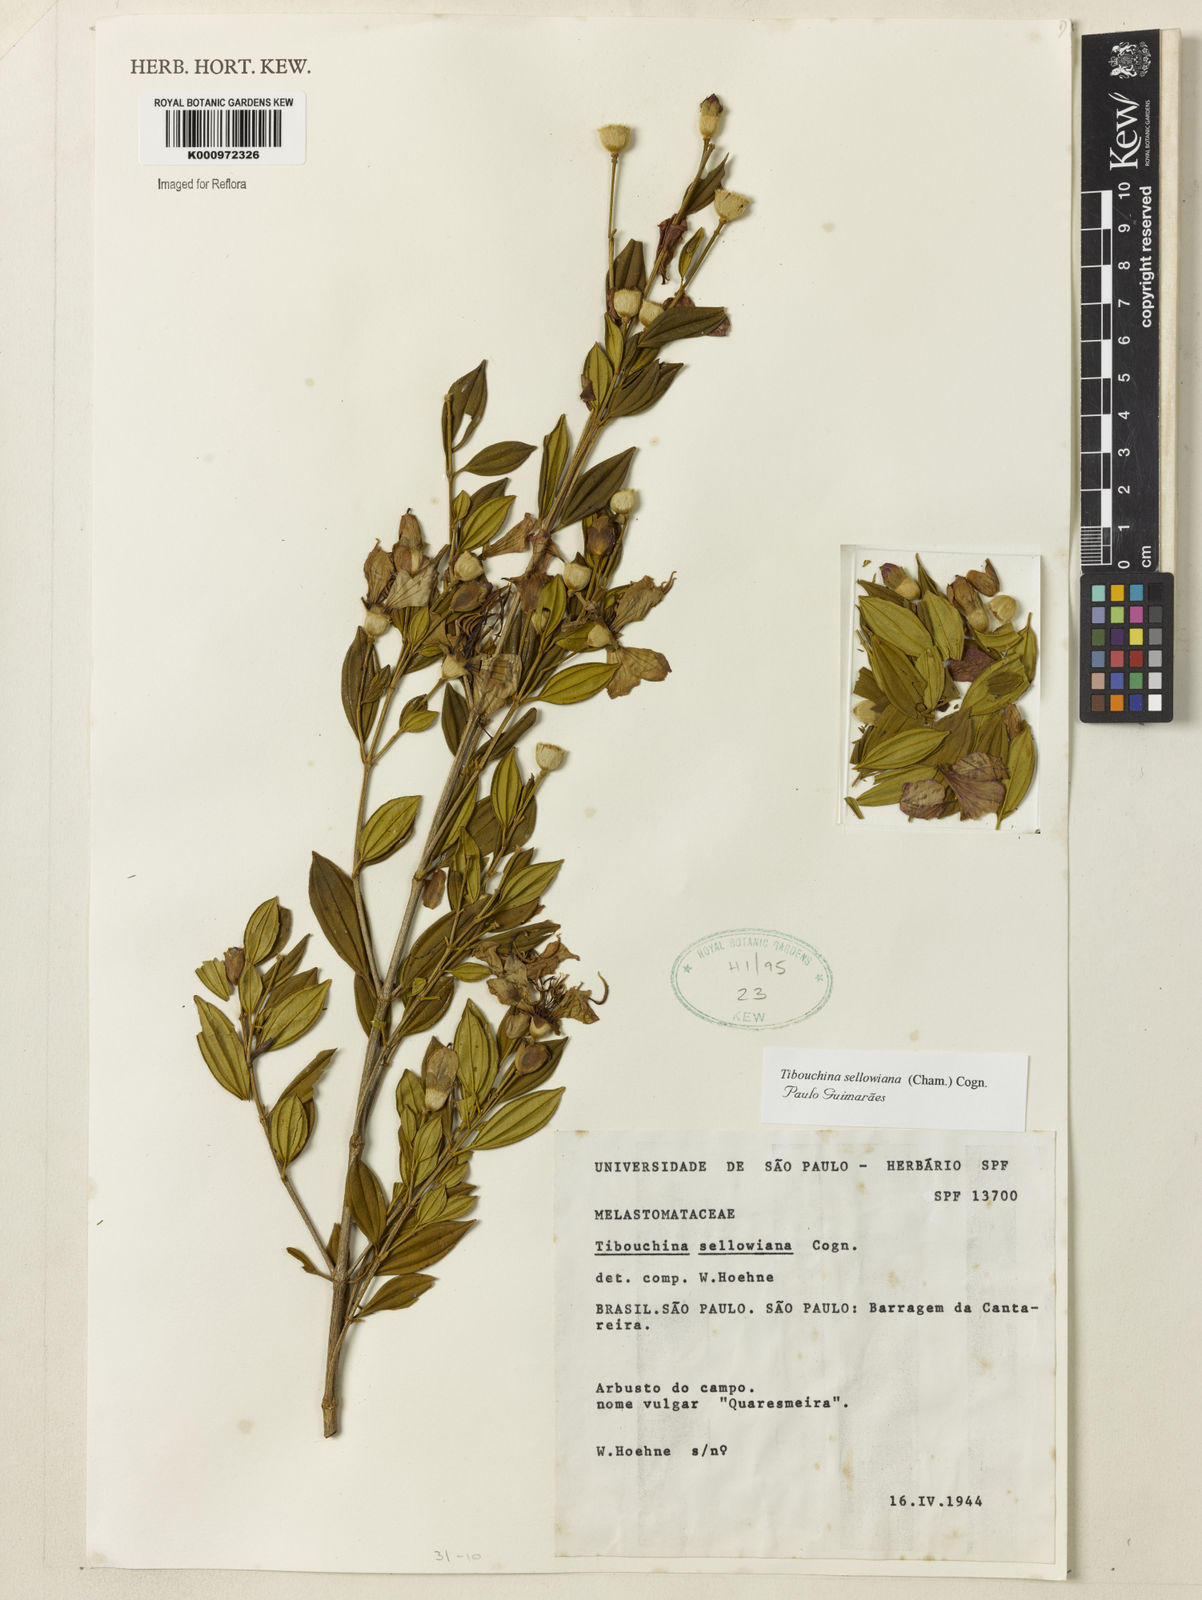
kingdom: Plantae
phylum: Tracheophyta
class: Magnoliopsida
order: Myrtales
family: Melastomataceae
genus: Pleroma
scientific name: Pleroma sellowianum
